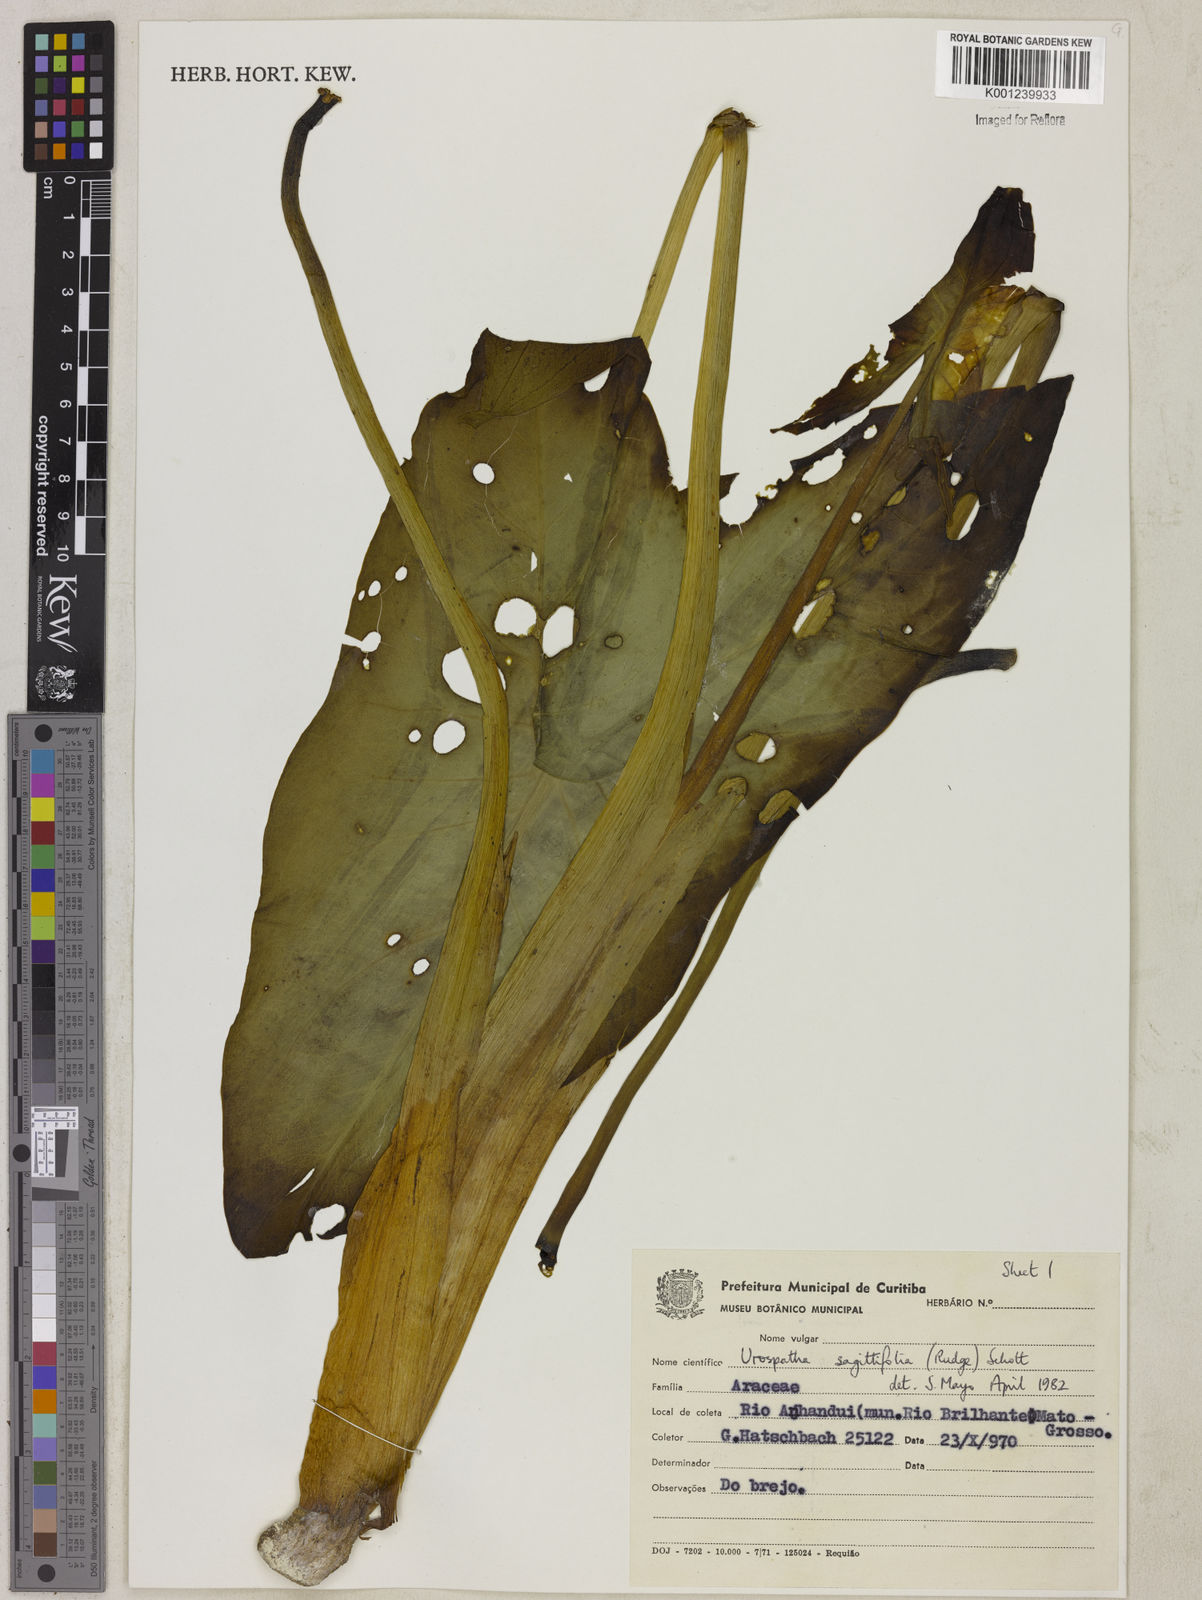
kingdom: Plantae
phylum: Tracheophyta
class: Liliopsida
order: Alismatales
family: Araceae
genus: Urospatha
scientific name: Urospatha sagittifolia
